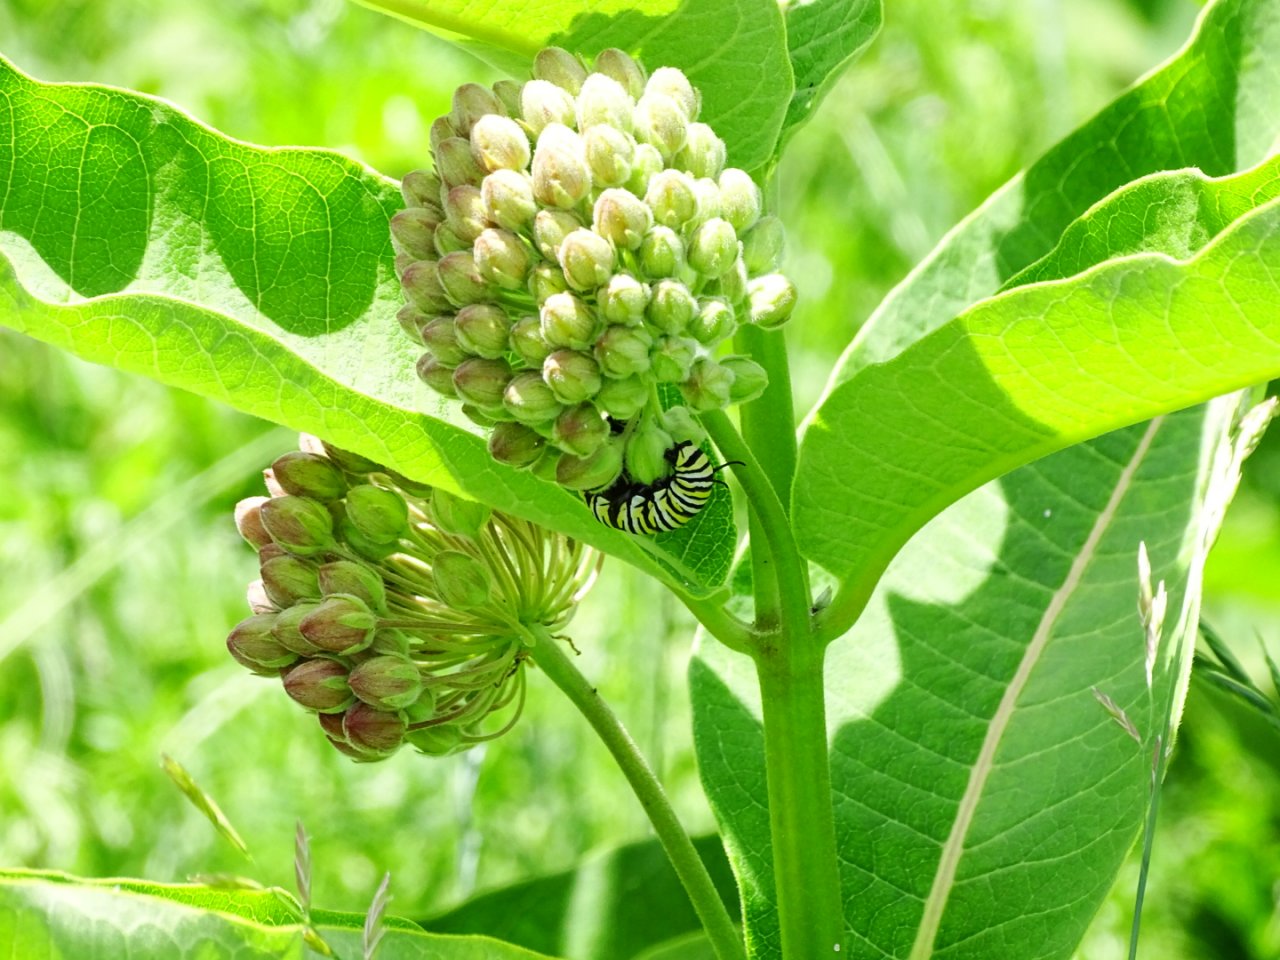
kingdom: Animalia
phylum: Arthropoda
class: Insecta
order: Lepidoptera
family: Nymphalidae
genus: Danaus
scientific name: Danaus plexippus
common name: Monarch
